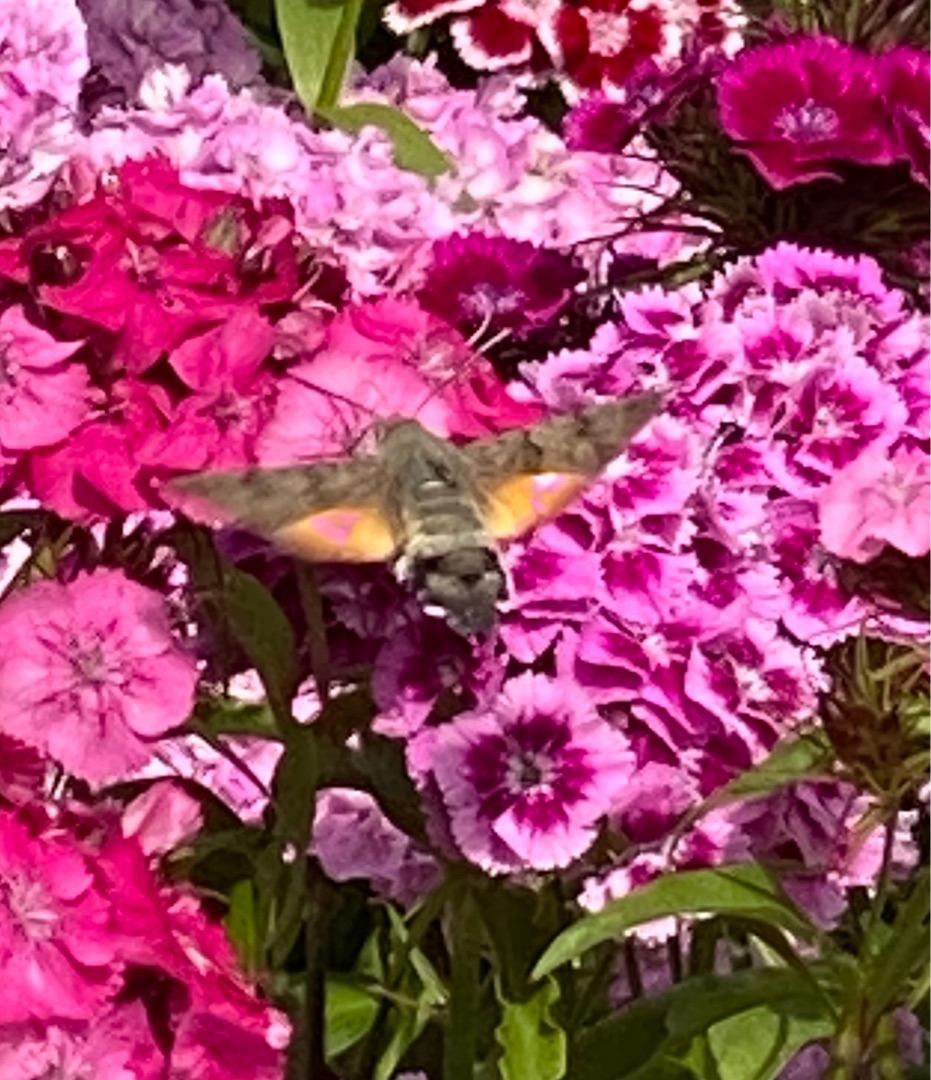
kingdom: Animalia
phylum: Arthropoda
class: Insecta
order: Lepidoptera
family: Sphingidae
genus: Macroglossum
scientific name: Macroglossum stellatarum
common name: Duehale
